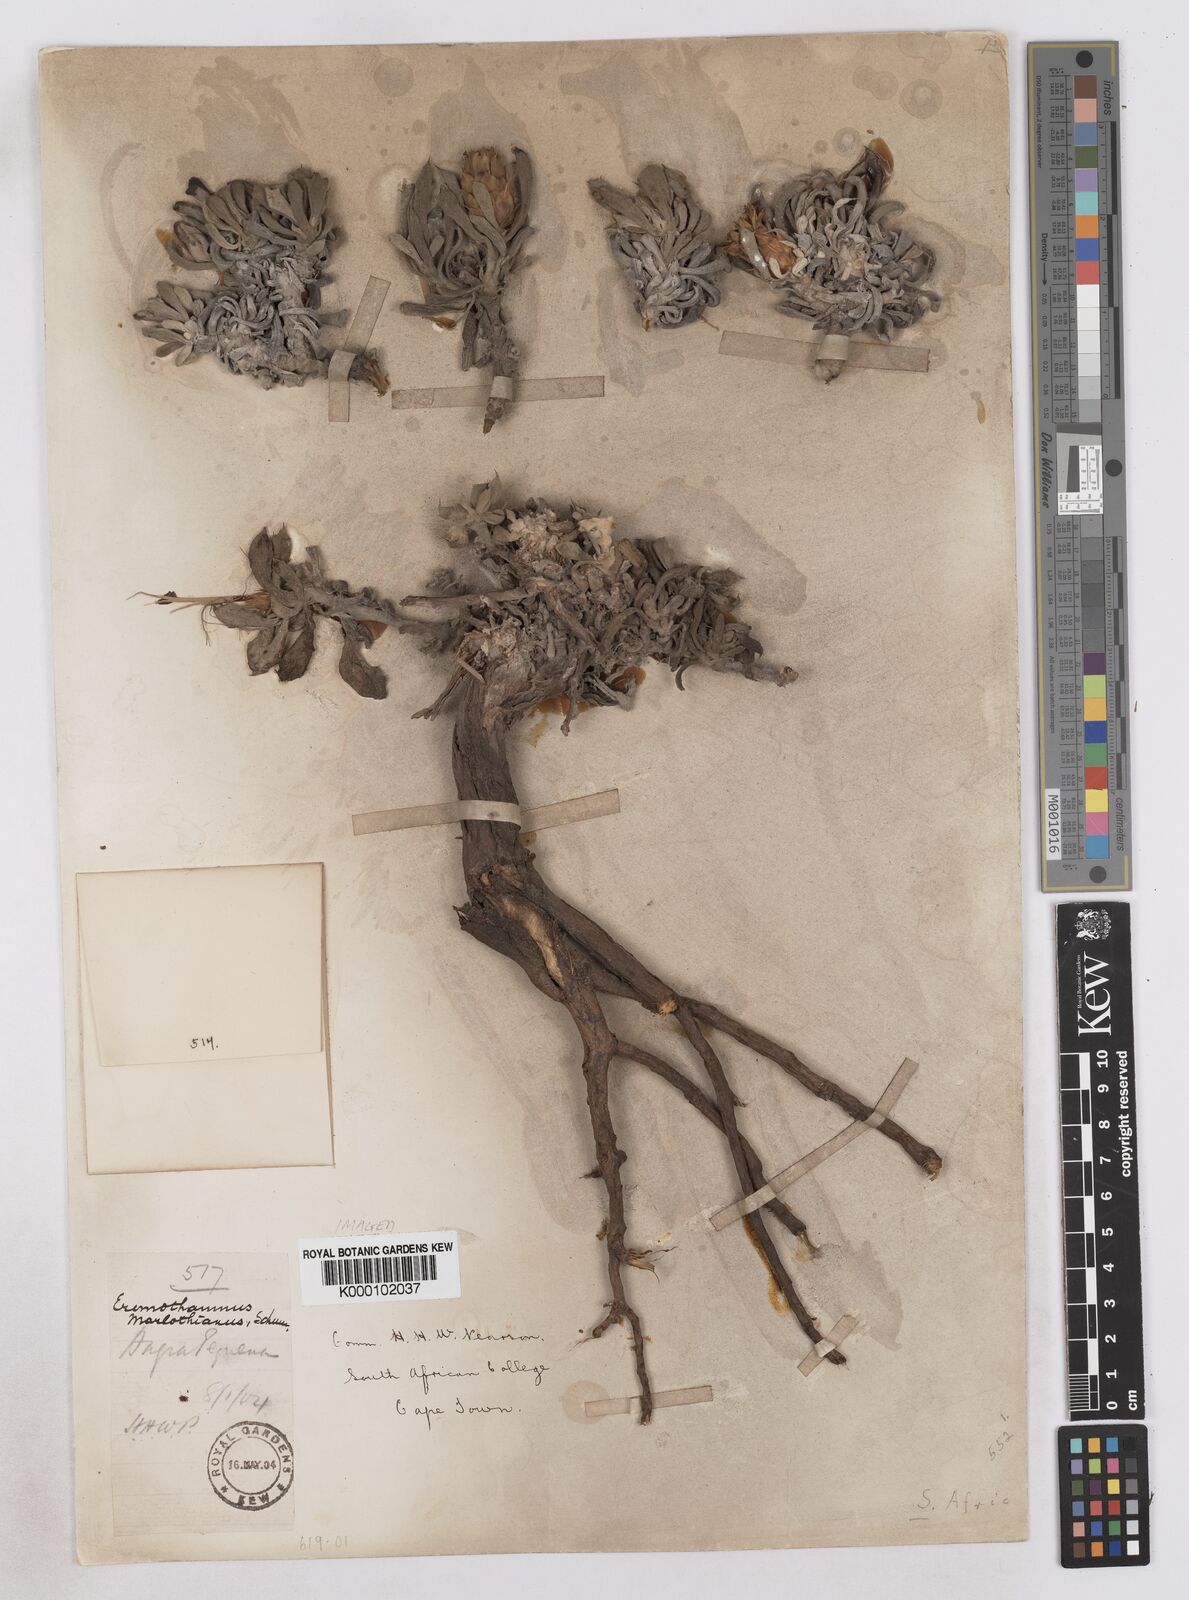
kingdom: Plantae
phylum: Tracheophyta
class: Magnoliopsida
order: Asterales
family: Asteraceae
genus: Eremothamnus
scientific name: Eremothamnus marlothianus
